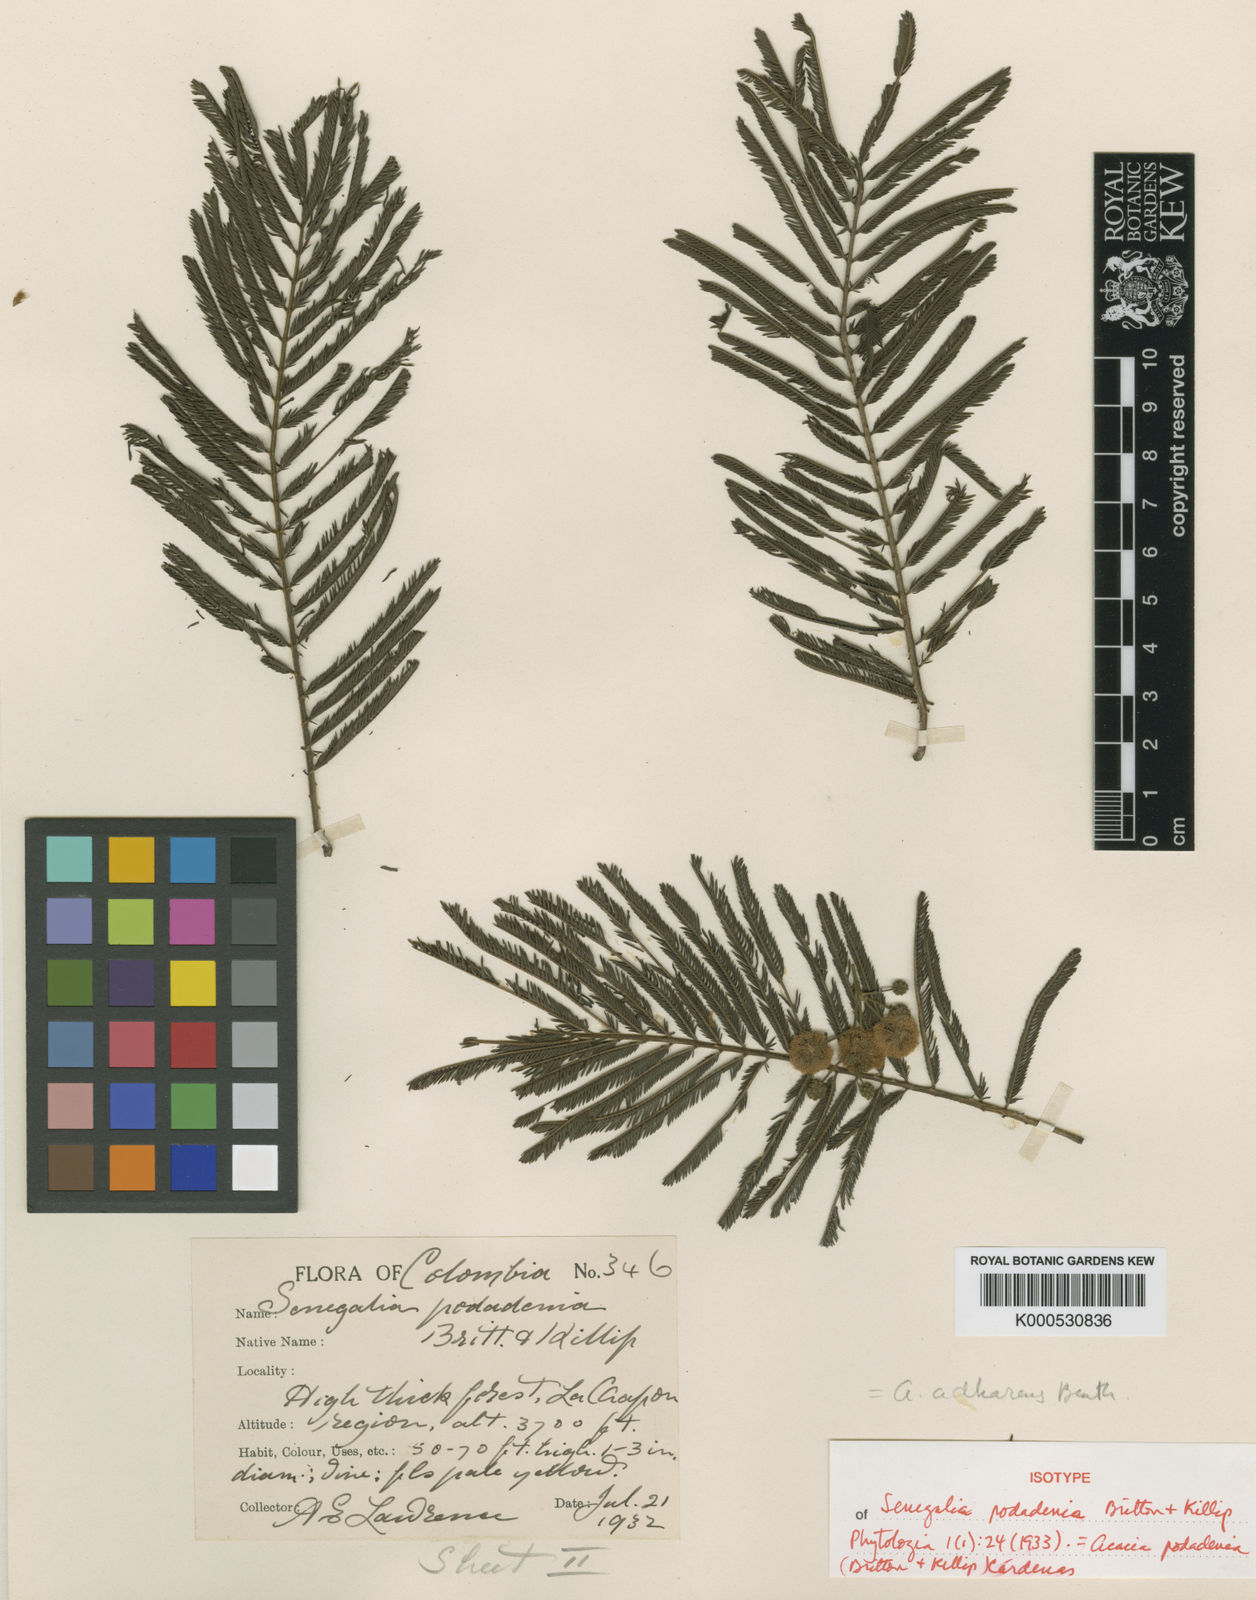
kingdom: Plantae
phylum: Tracheophyta
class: Magnoliopsida
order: Fabales
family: Fabaceae
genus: Acacia
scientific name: Acacia
